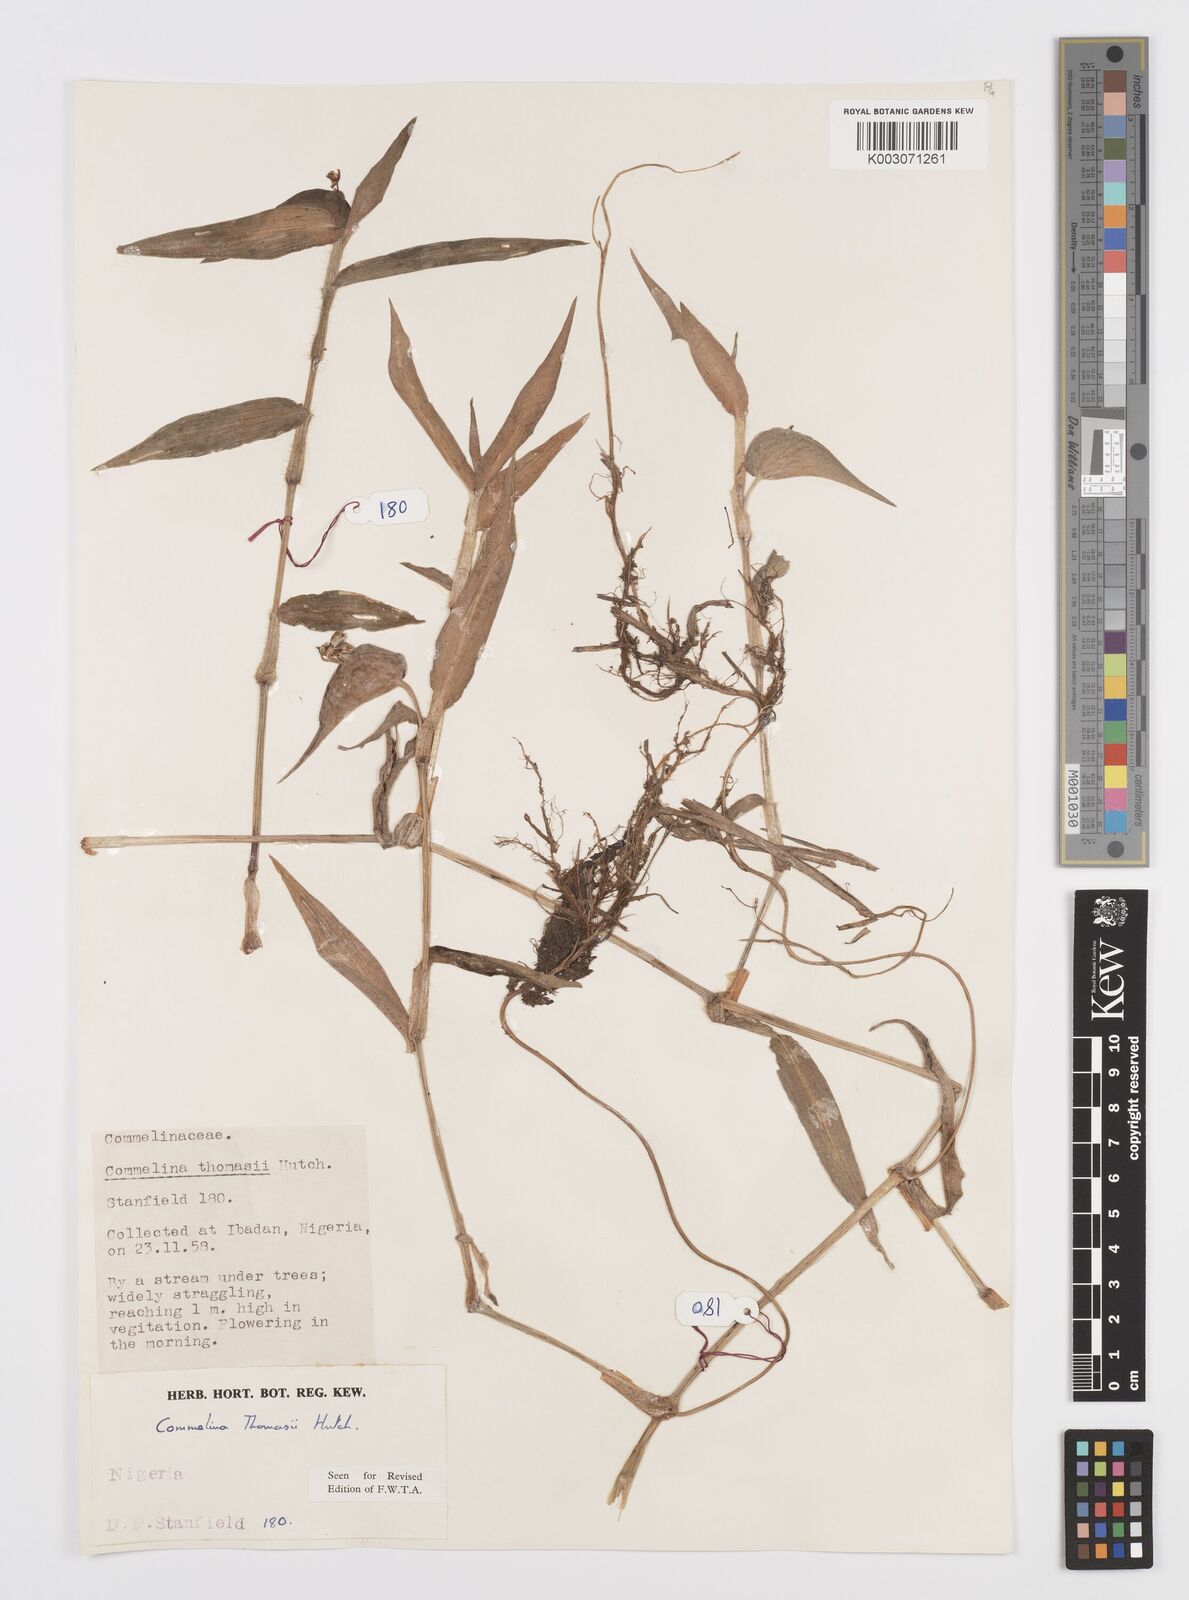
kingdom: Plantae
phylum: Tracheophyta
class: Liliopsida
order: Commelinales
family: Commelinaceae
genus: Commelina
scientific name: Commelina acutispatha
